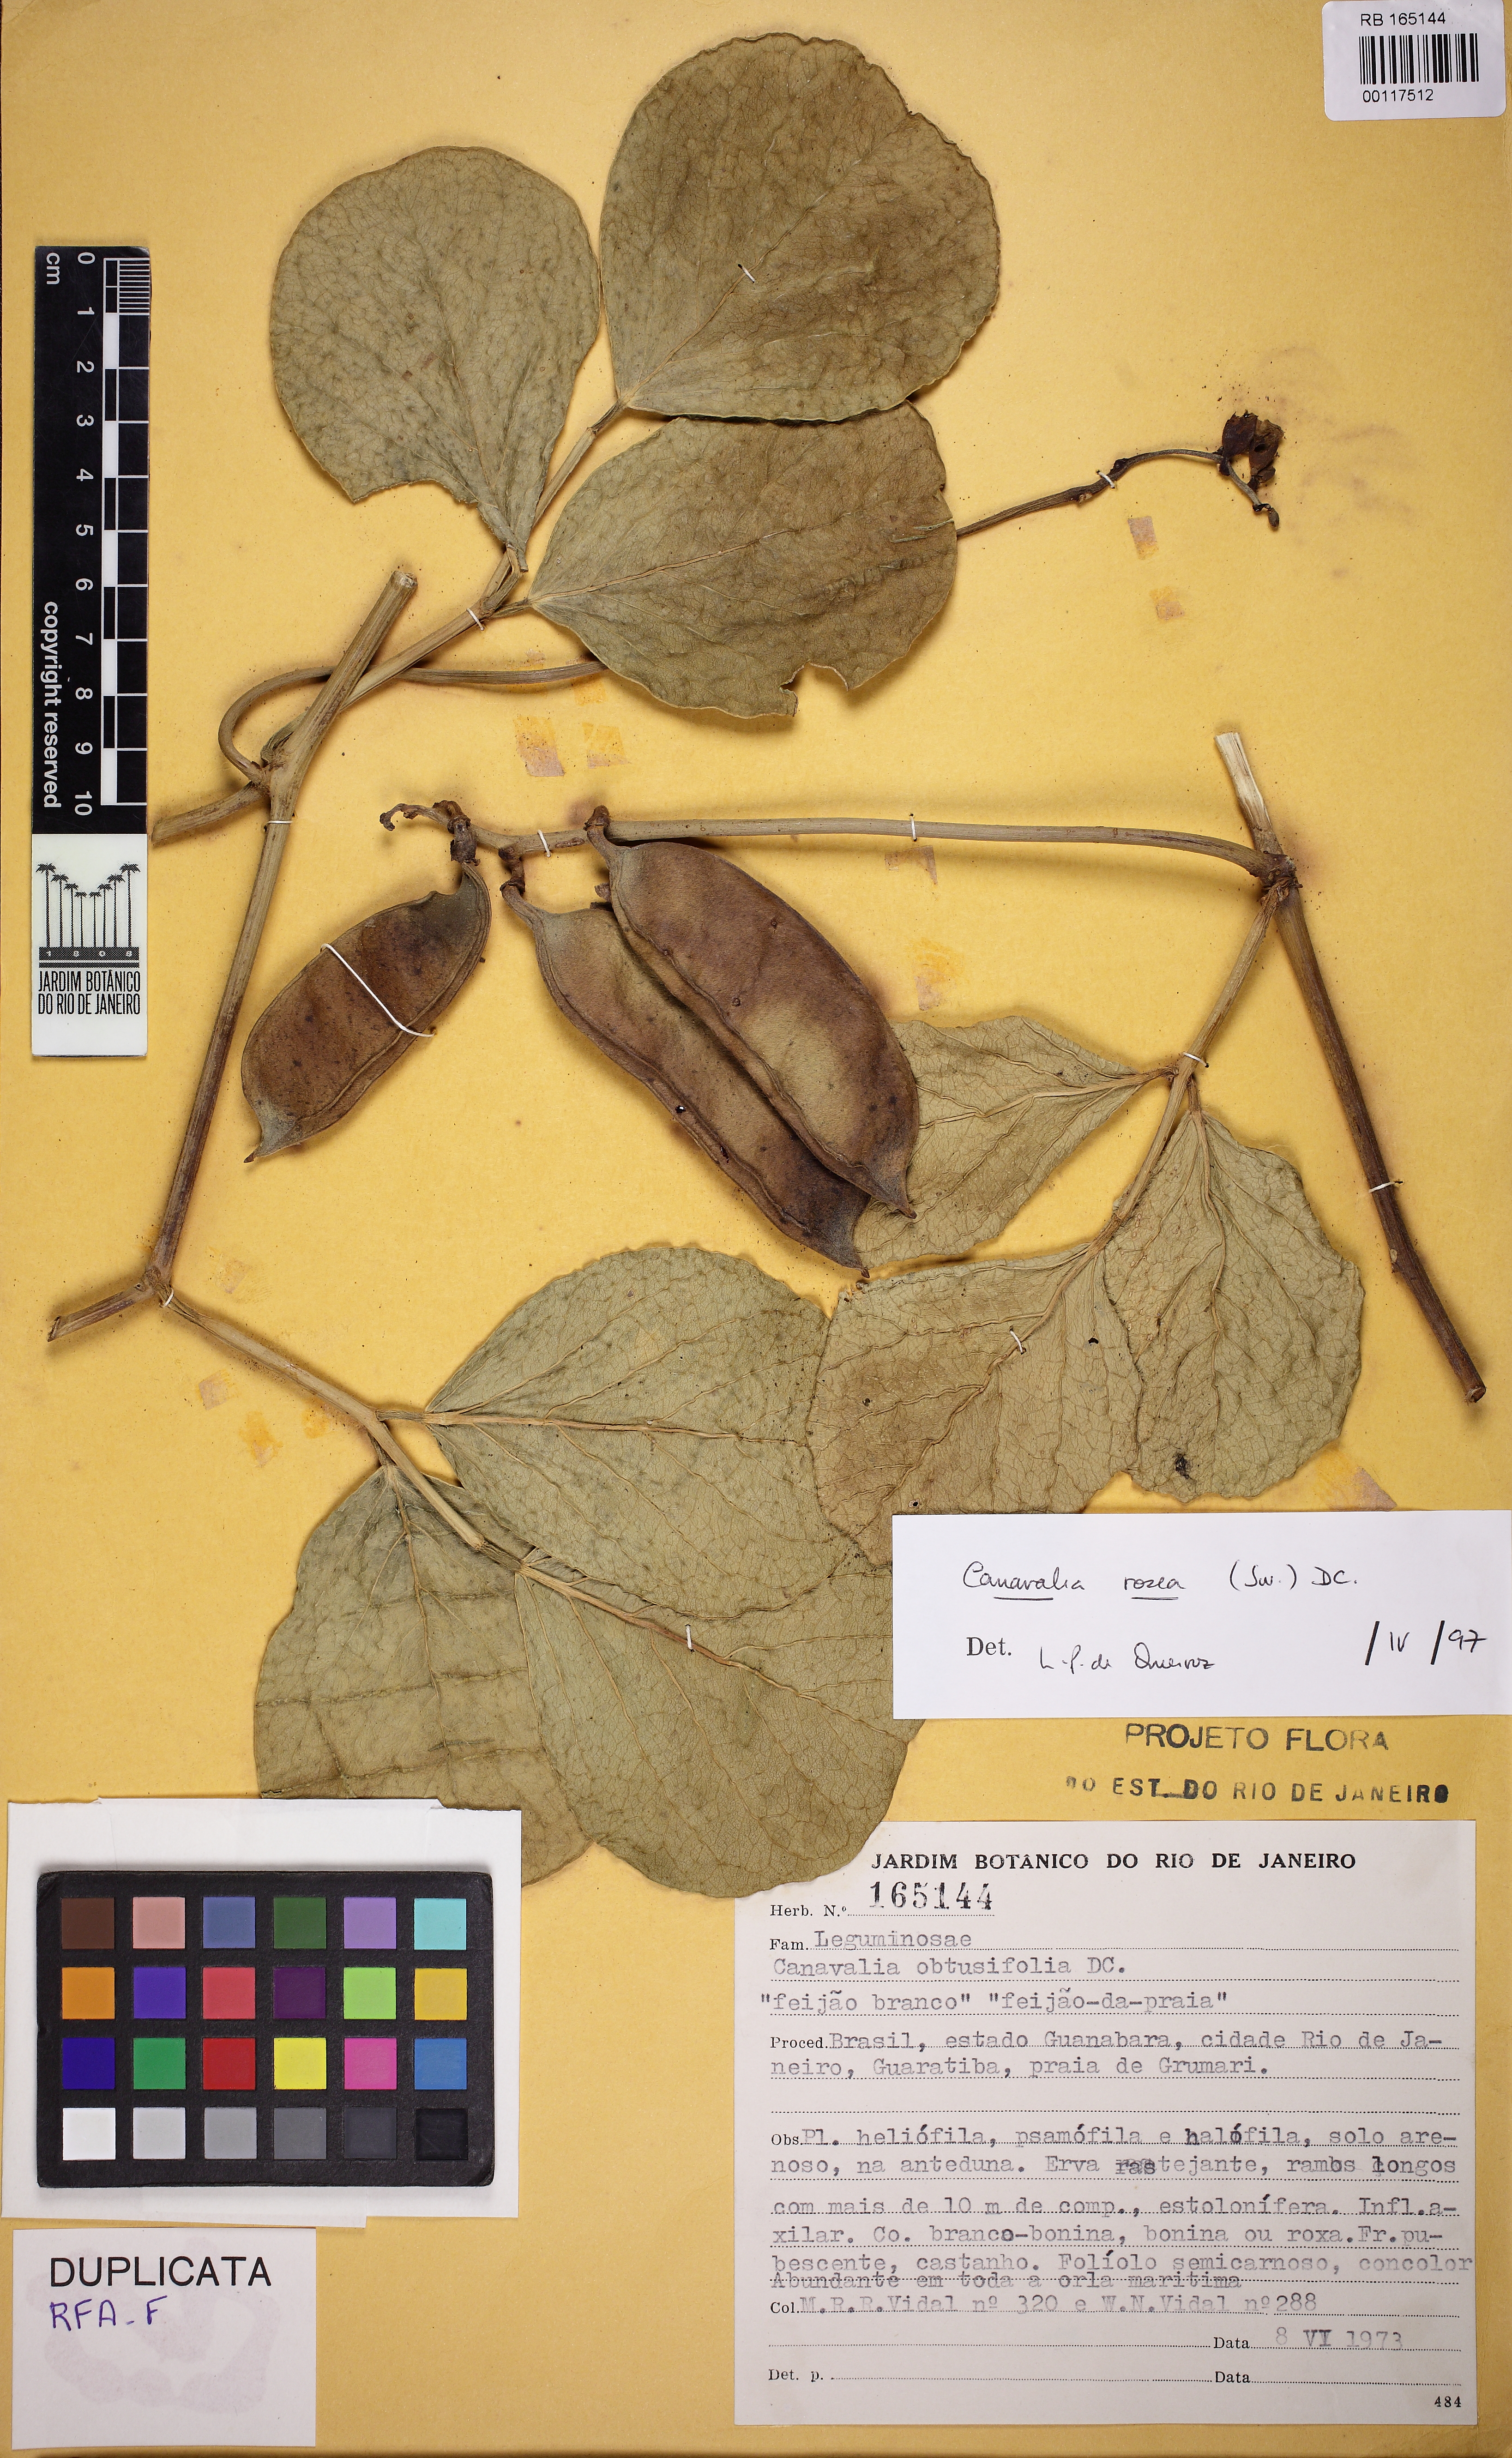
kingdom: Plantae
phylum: Tracheophyta
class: Magnoliopsida
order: Fabales
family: Fabaceae
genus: Canavalia
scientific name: Canavalia rosea
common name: Beach-bean
